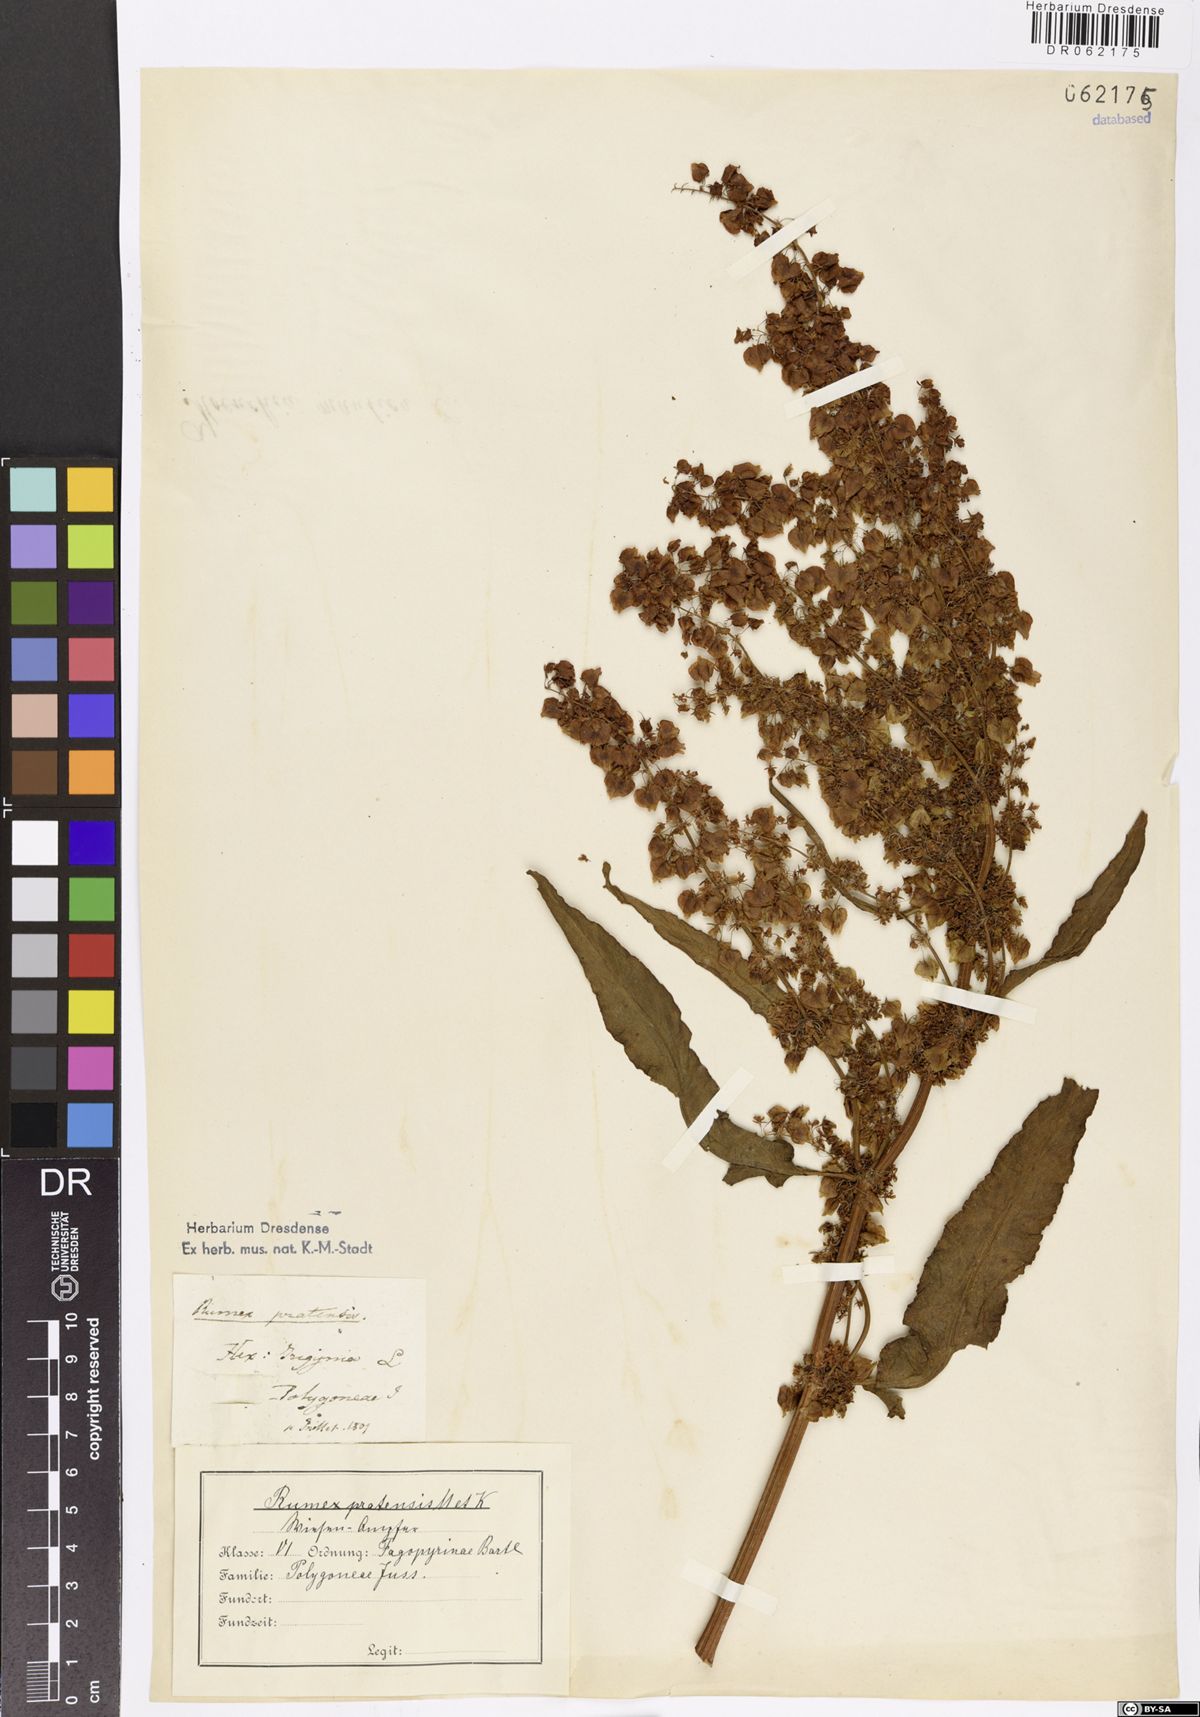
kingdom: Plantae
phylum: Tracheophyta
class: Magnoliopsida
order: Caryophyllales
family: Polygonaceae
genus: Rumex
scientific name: Rumex pratensis
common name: Knotweed
